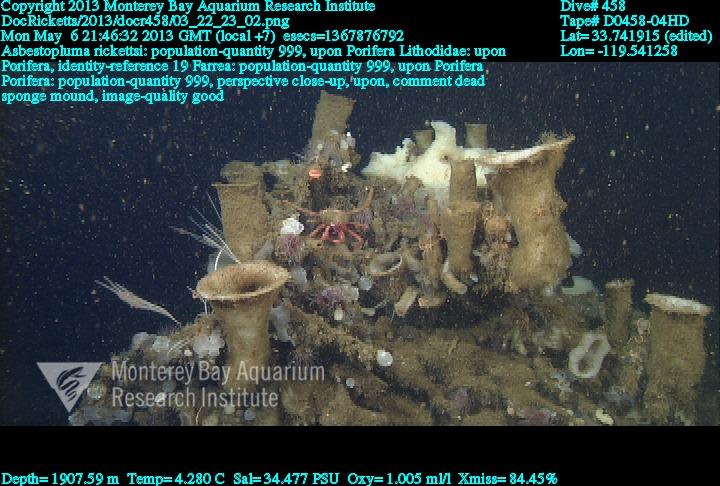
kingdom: Animalia
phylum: Porifera
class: Demospongiae
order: Poecilosclerida
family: Cladorhizidae
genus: Asbestopluma
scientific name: Asbestopluma rickettsi
